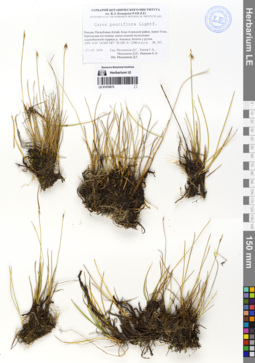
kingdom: Plantae
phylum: Tracheophyta
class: Liliopsida
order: Poales
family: Cyperaceae
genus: Carex
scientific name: Carex pauciflora
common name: Few-flowered sedge
